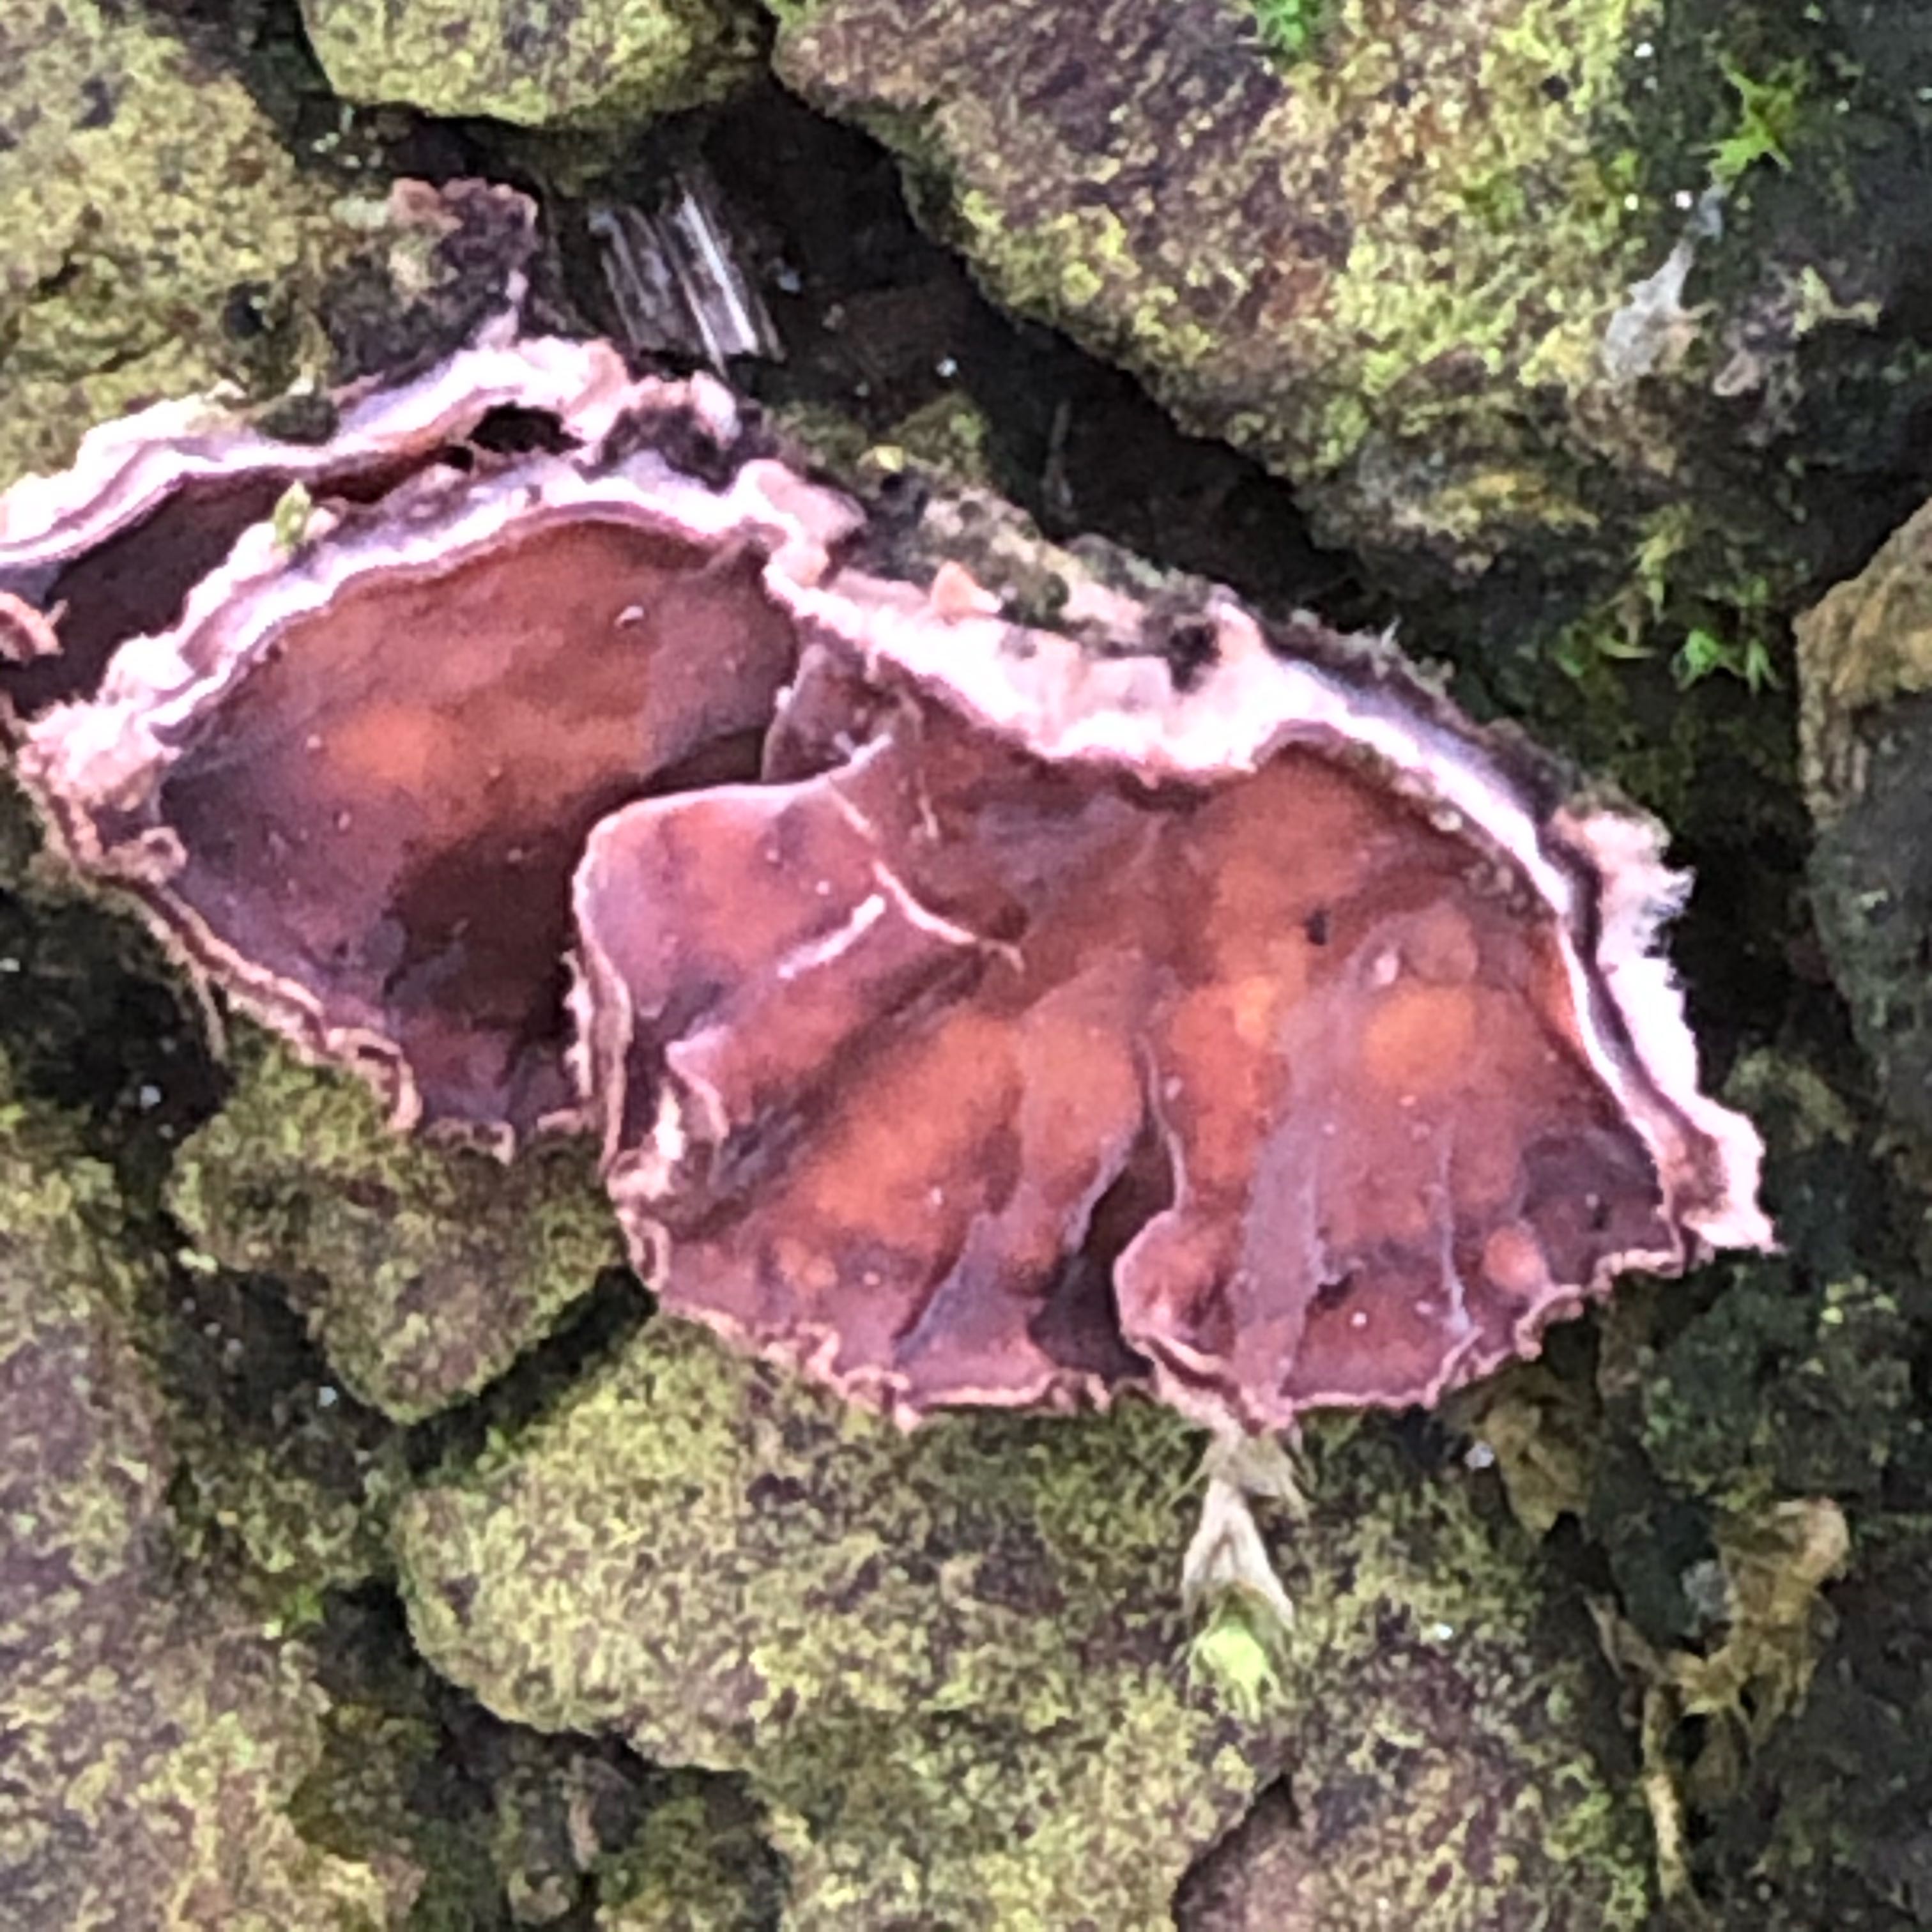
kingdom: Fungi
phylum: Basidiomycota
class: Agaricomycetes
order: Agaricales
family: Cyphellaceae
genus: Chondrostereum
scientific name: Chondrostereum purpureum
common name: purpurlædersvamp
